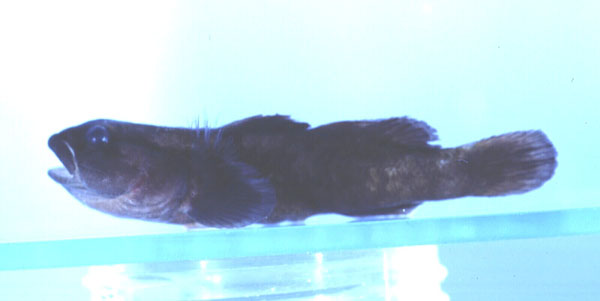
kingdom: Animalia
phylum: Chordata
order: Perciformes
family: Gobiidae
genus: Bathygobius
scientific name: Bathygobius niger
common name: Black minigoby
